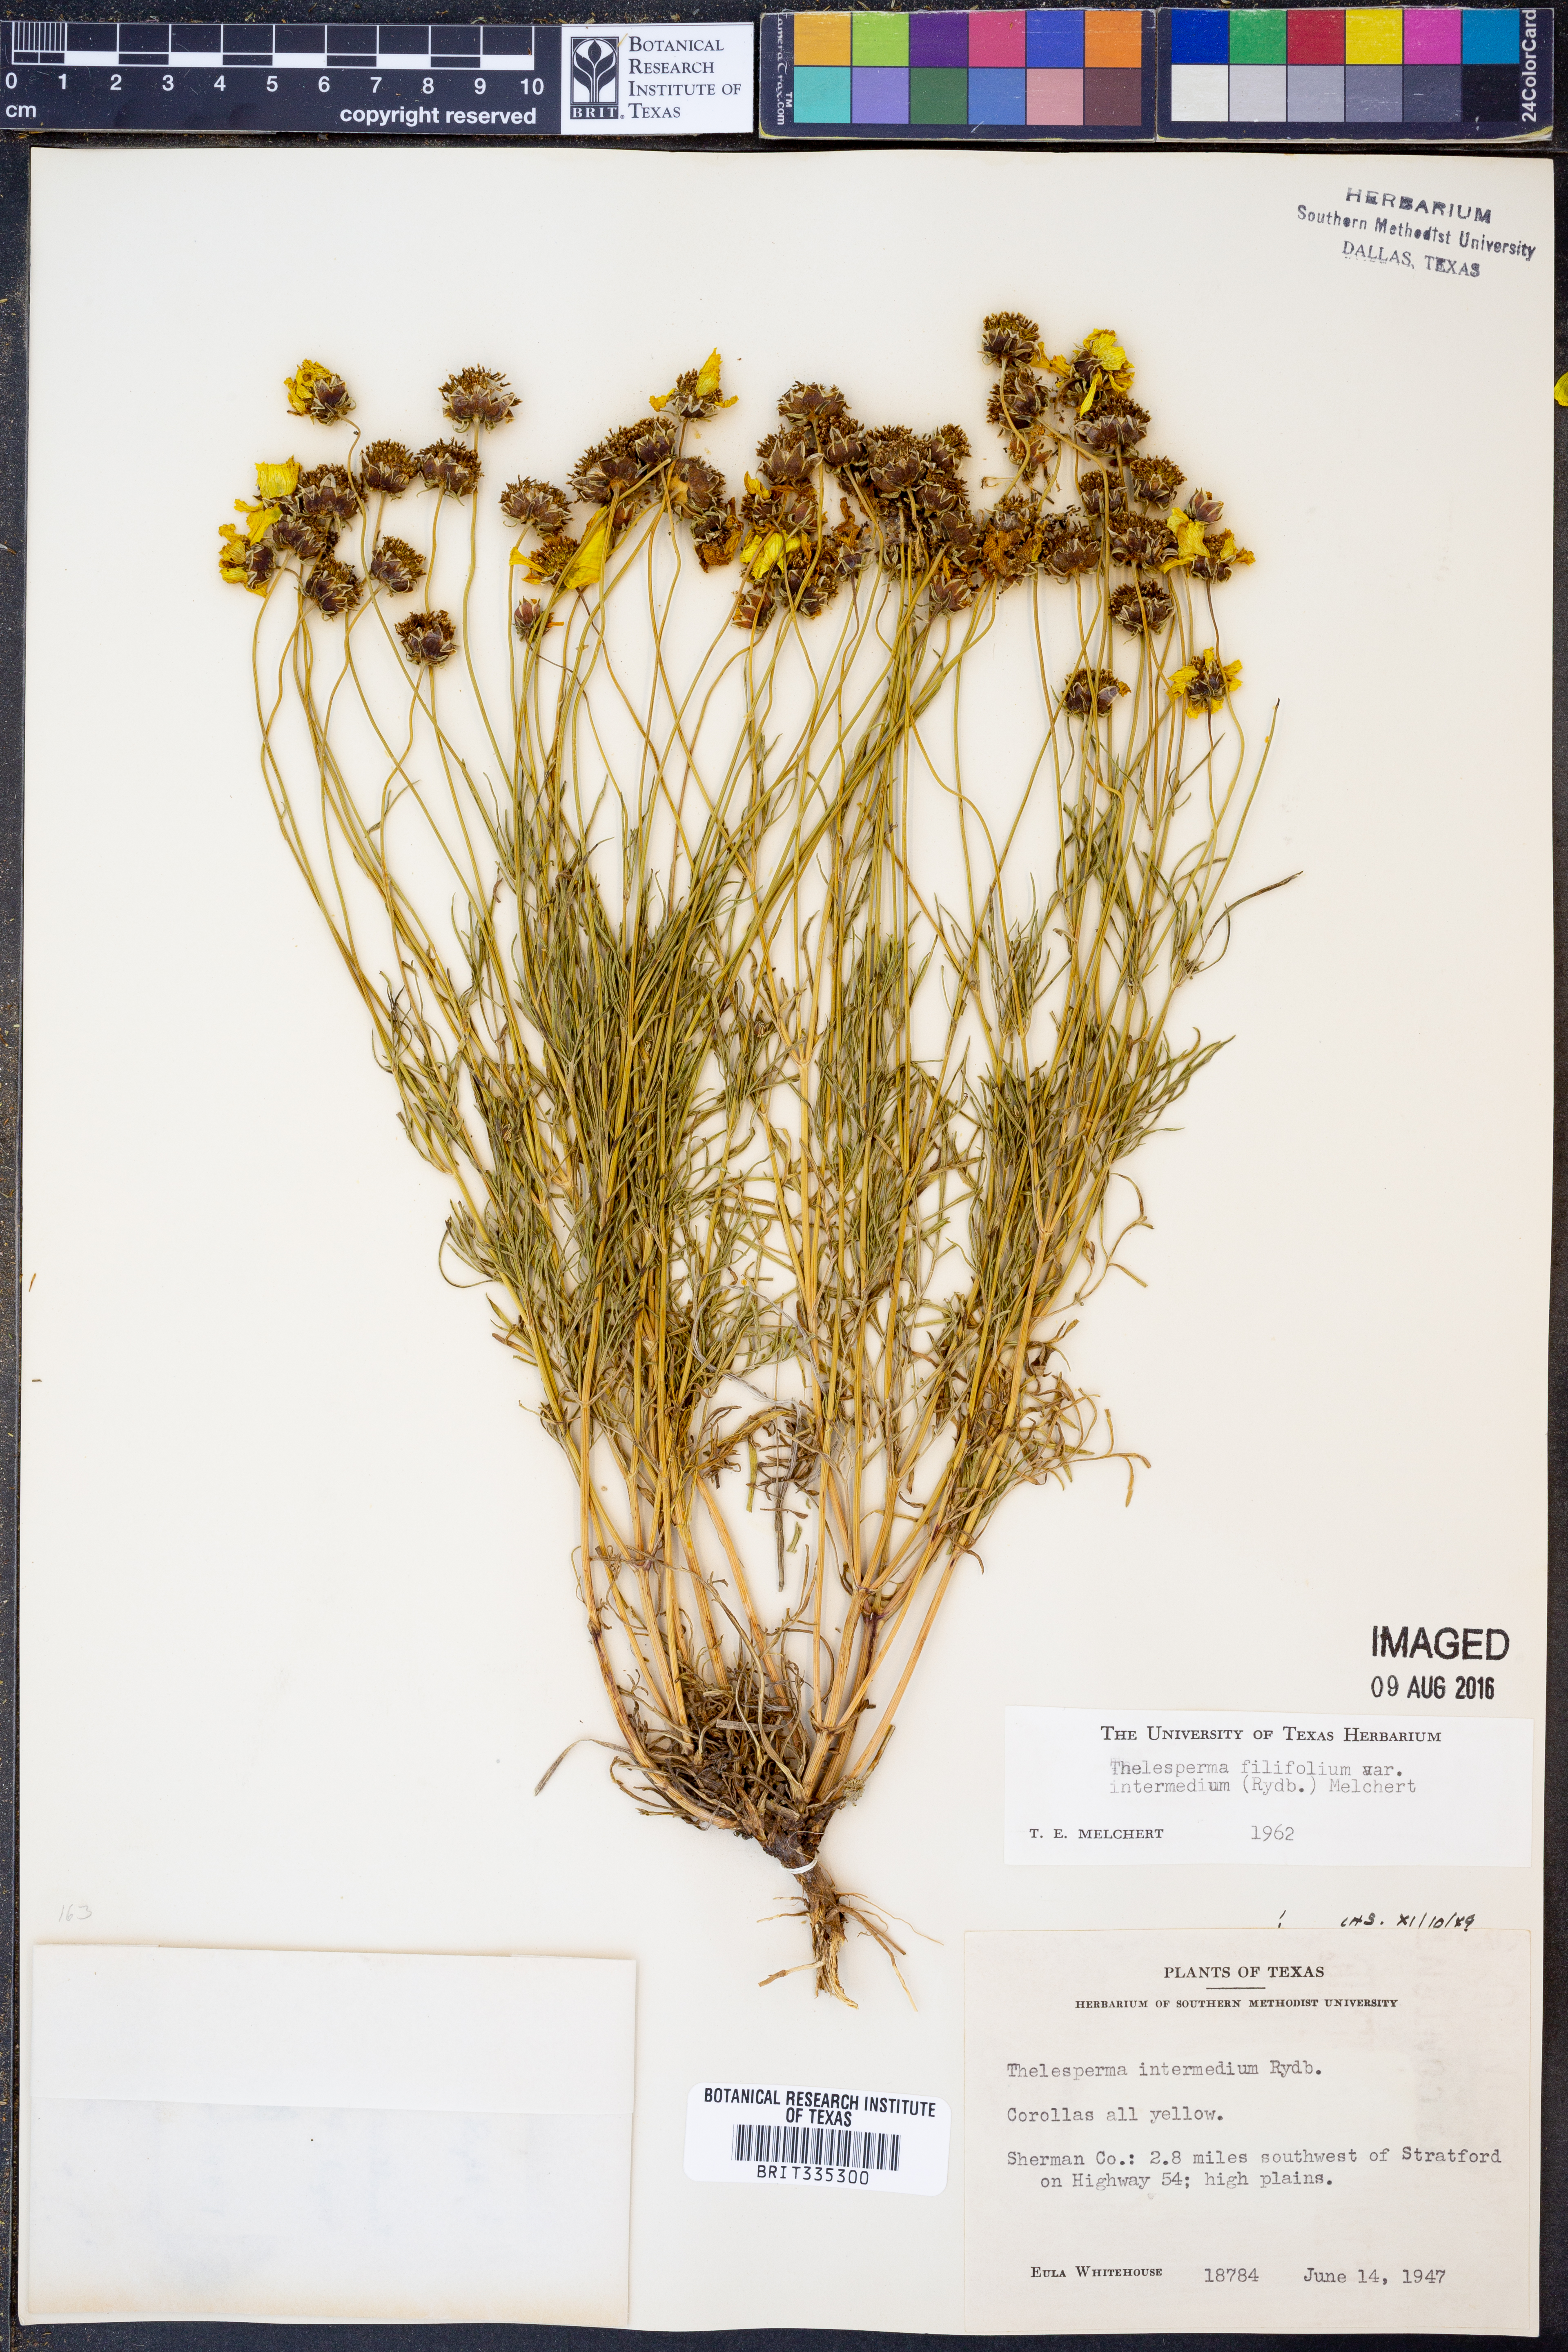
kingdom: Plantae
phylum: Tracheophyta
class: Magnoliopsida
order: Asterales
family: Asteraceae
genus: Thelesperma
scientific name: Thelesperma filifolium
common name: Stiff greenthread
